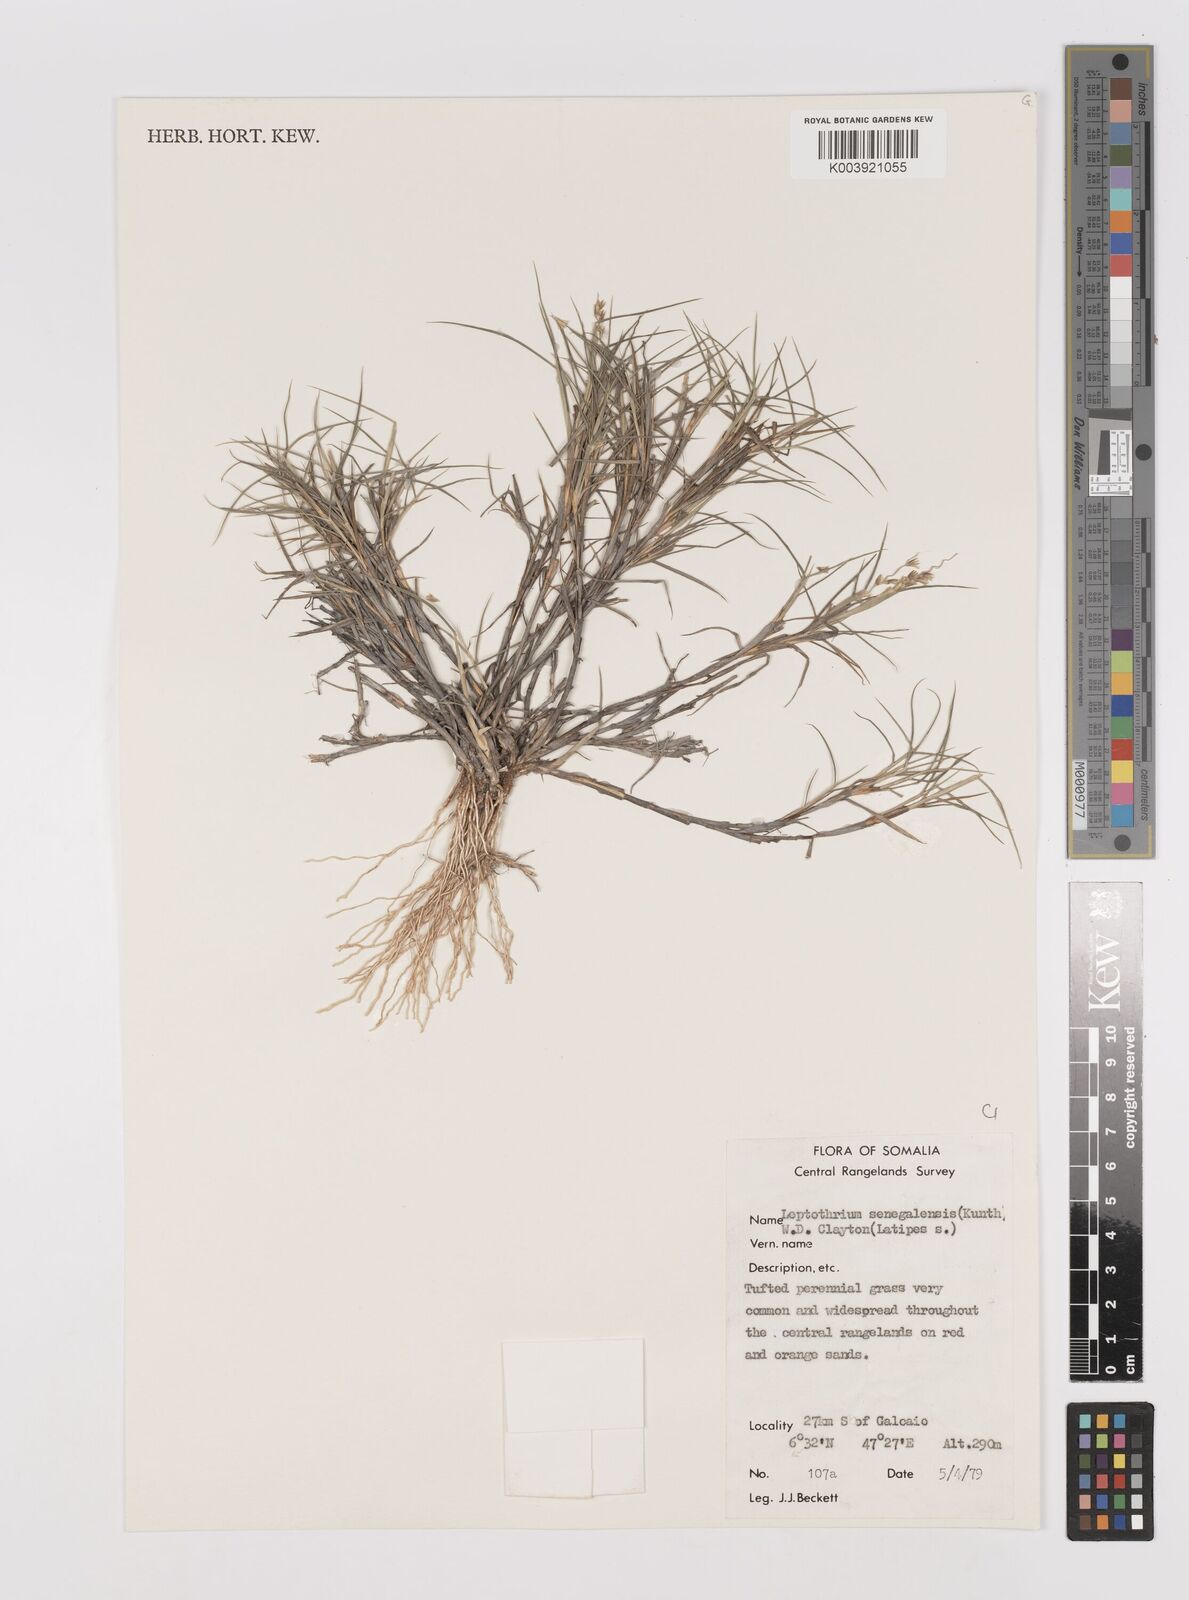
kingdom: Plantae
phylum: Tracheophyta
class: Liliopsida
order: Poales
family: Poaceae
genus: Leptothrium
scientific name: Leptothrium senegalense
